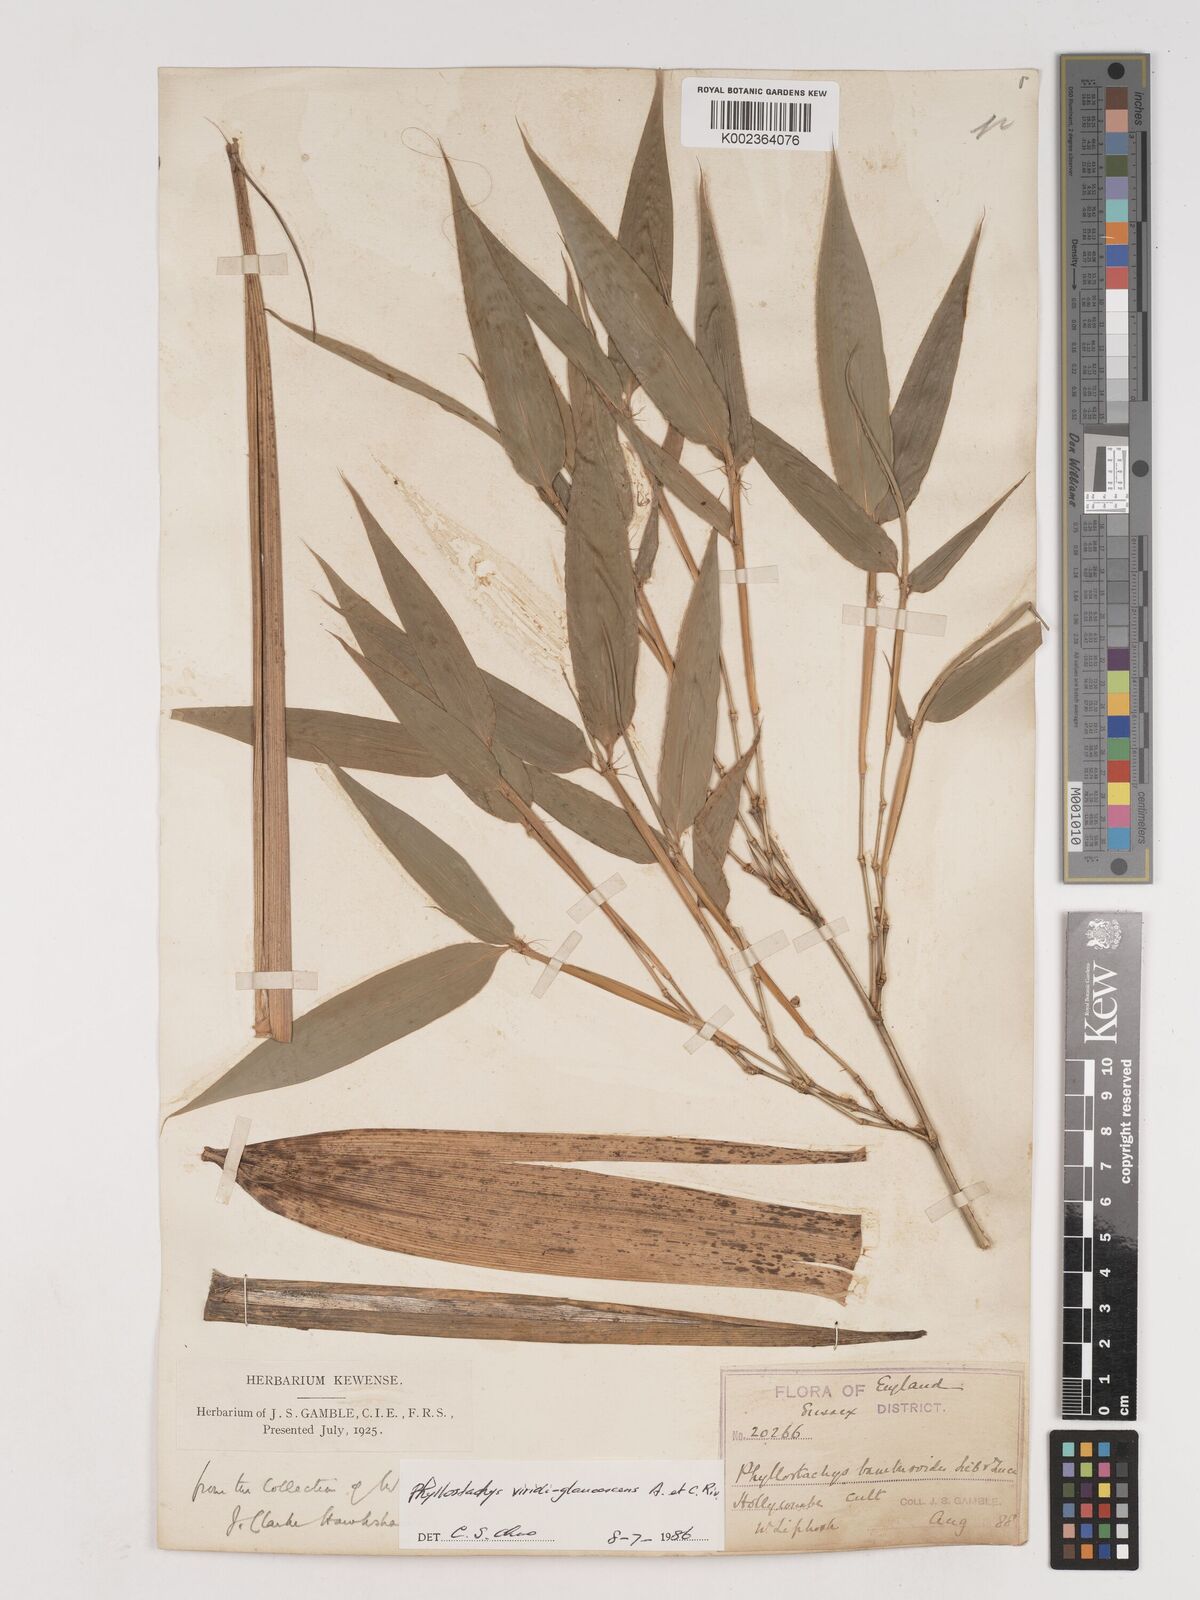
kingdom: Plantae
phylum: Tracheophyta
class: Liliopsida
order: Poales
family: Poaceae
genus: Phyllostachys
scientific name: Phyllostachys viridiglaucescens
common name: Greenwax golden bamboo
